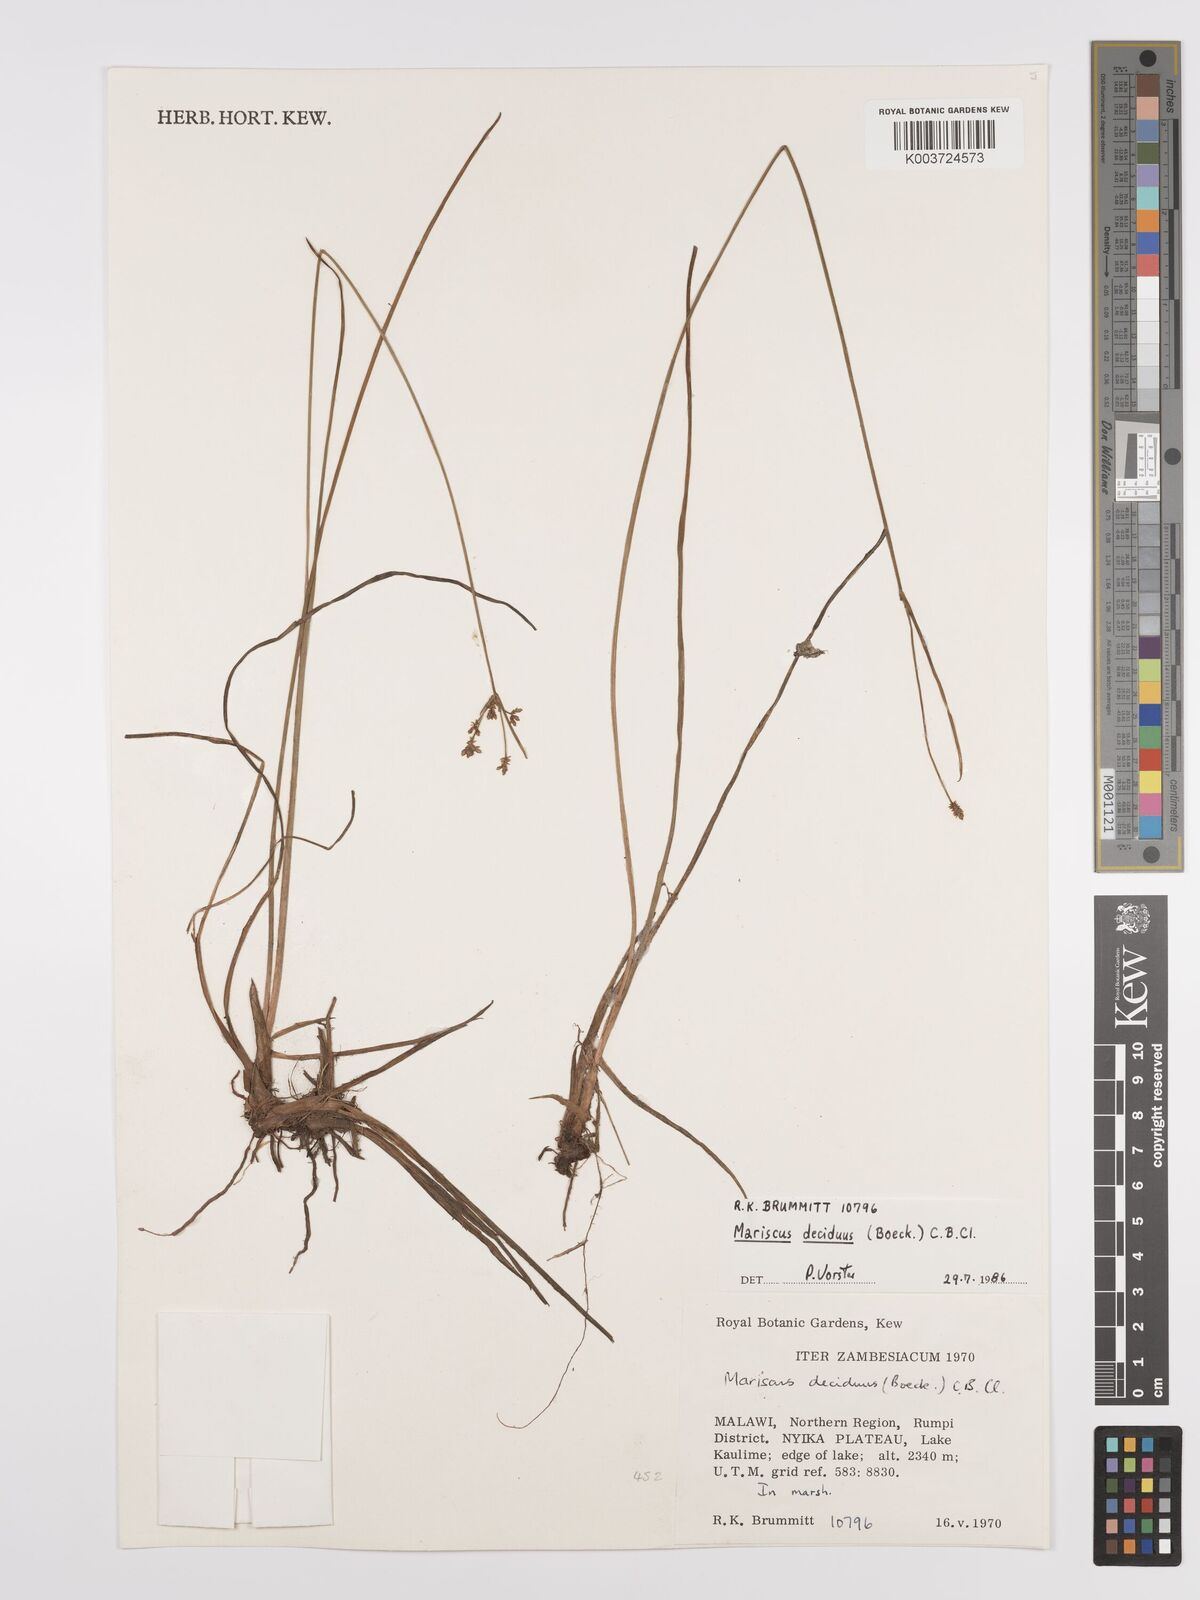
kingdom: Plantae
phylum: Tracheophyta
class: Liliopsida
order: Poales
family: Cyperaceae
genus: Cyperus
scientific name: Cyperus deciduus
